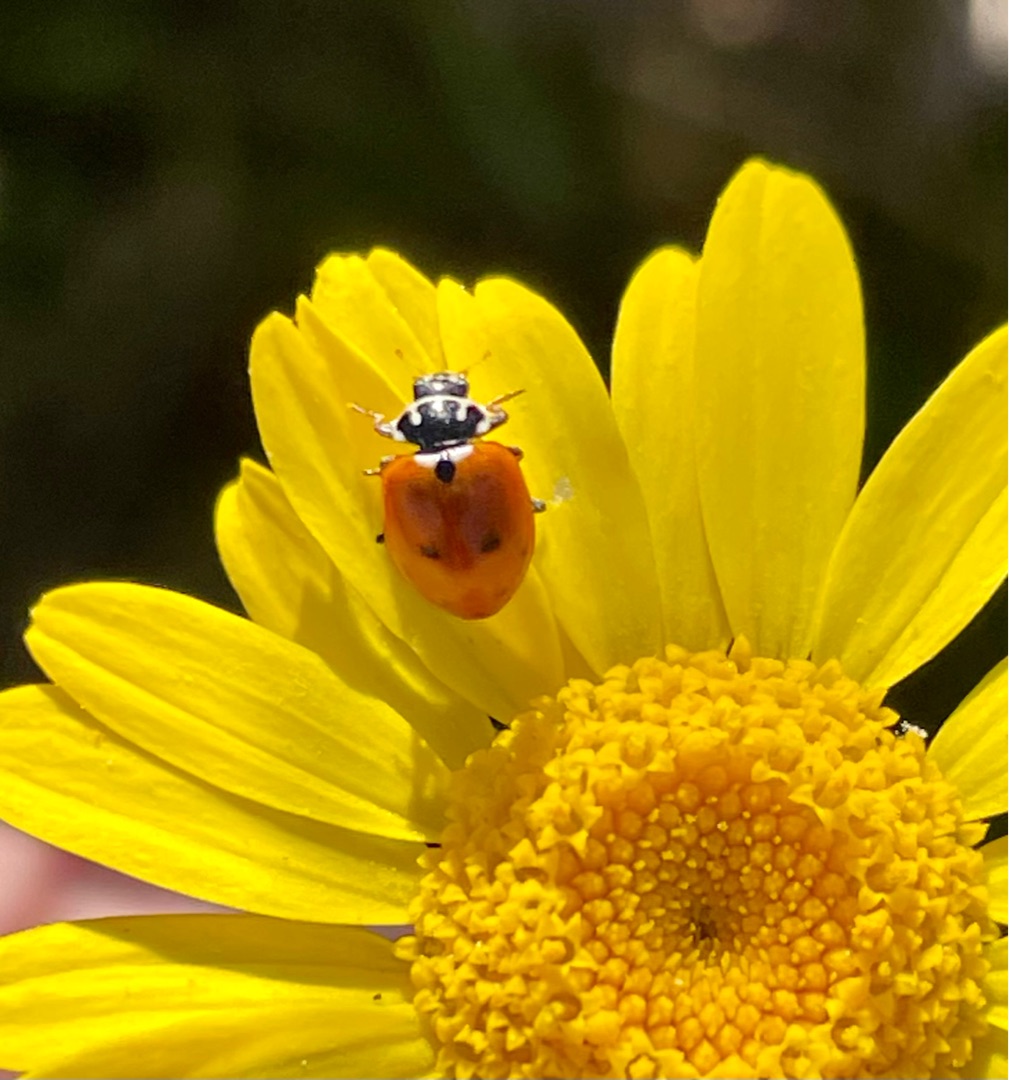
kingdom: Animalia
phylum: Arthropoda
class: Insecta
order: Coleoptera
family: Coccinellidae
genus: Hippodamia
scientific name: Hippodamia variegata
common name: Adonis' mariehøne
